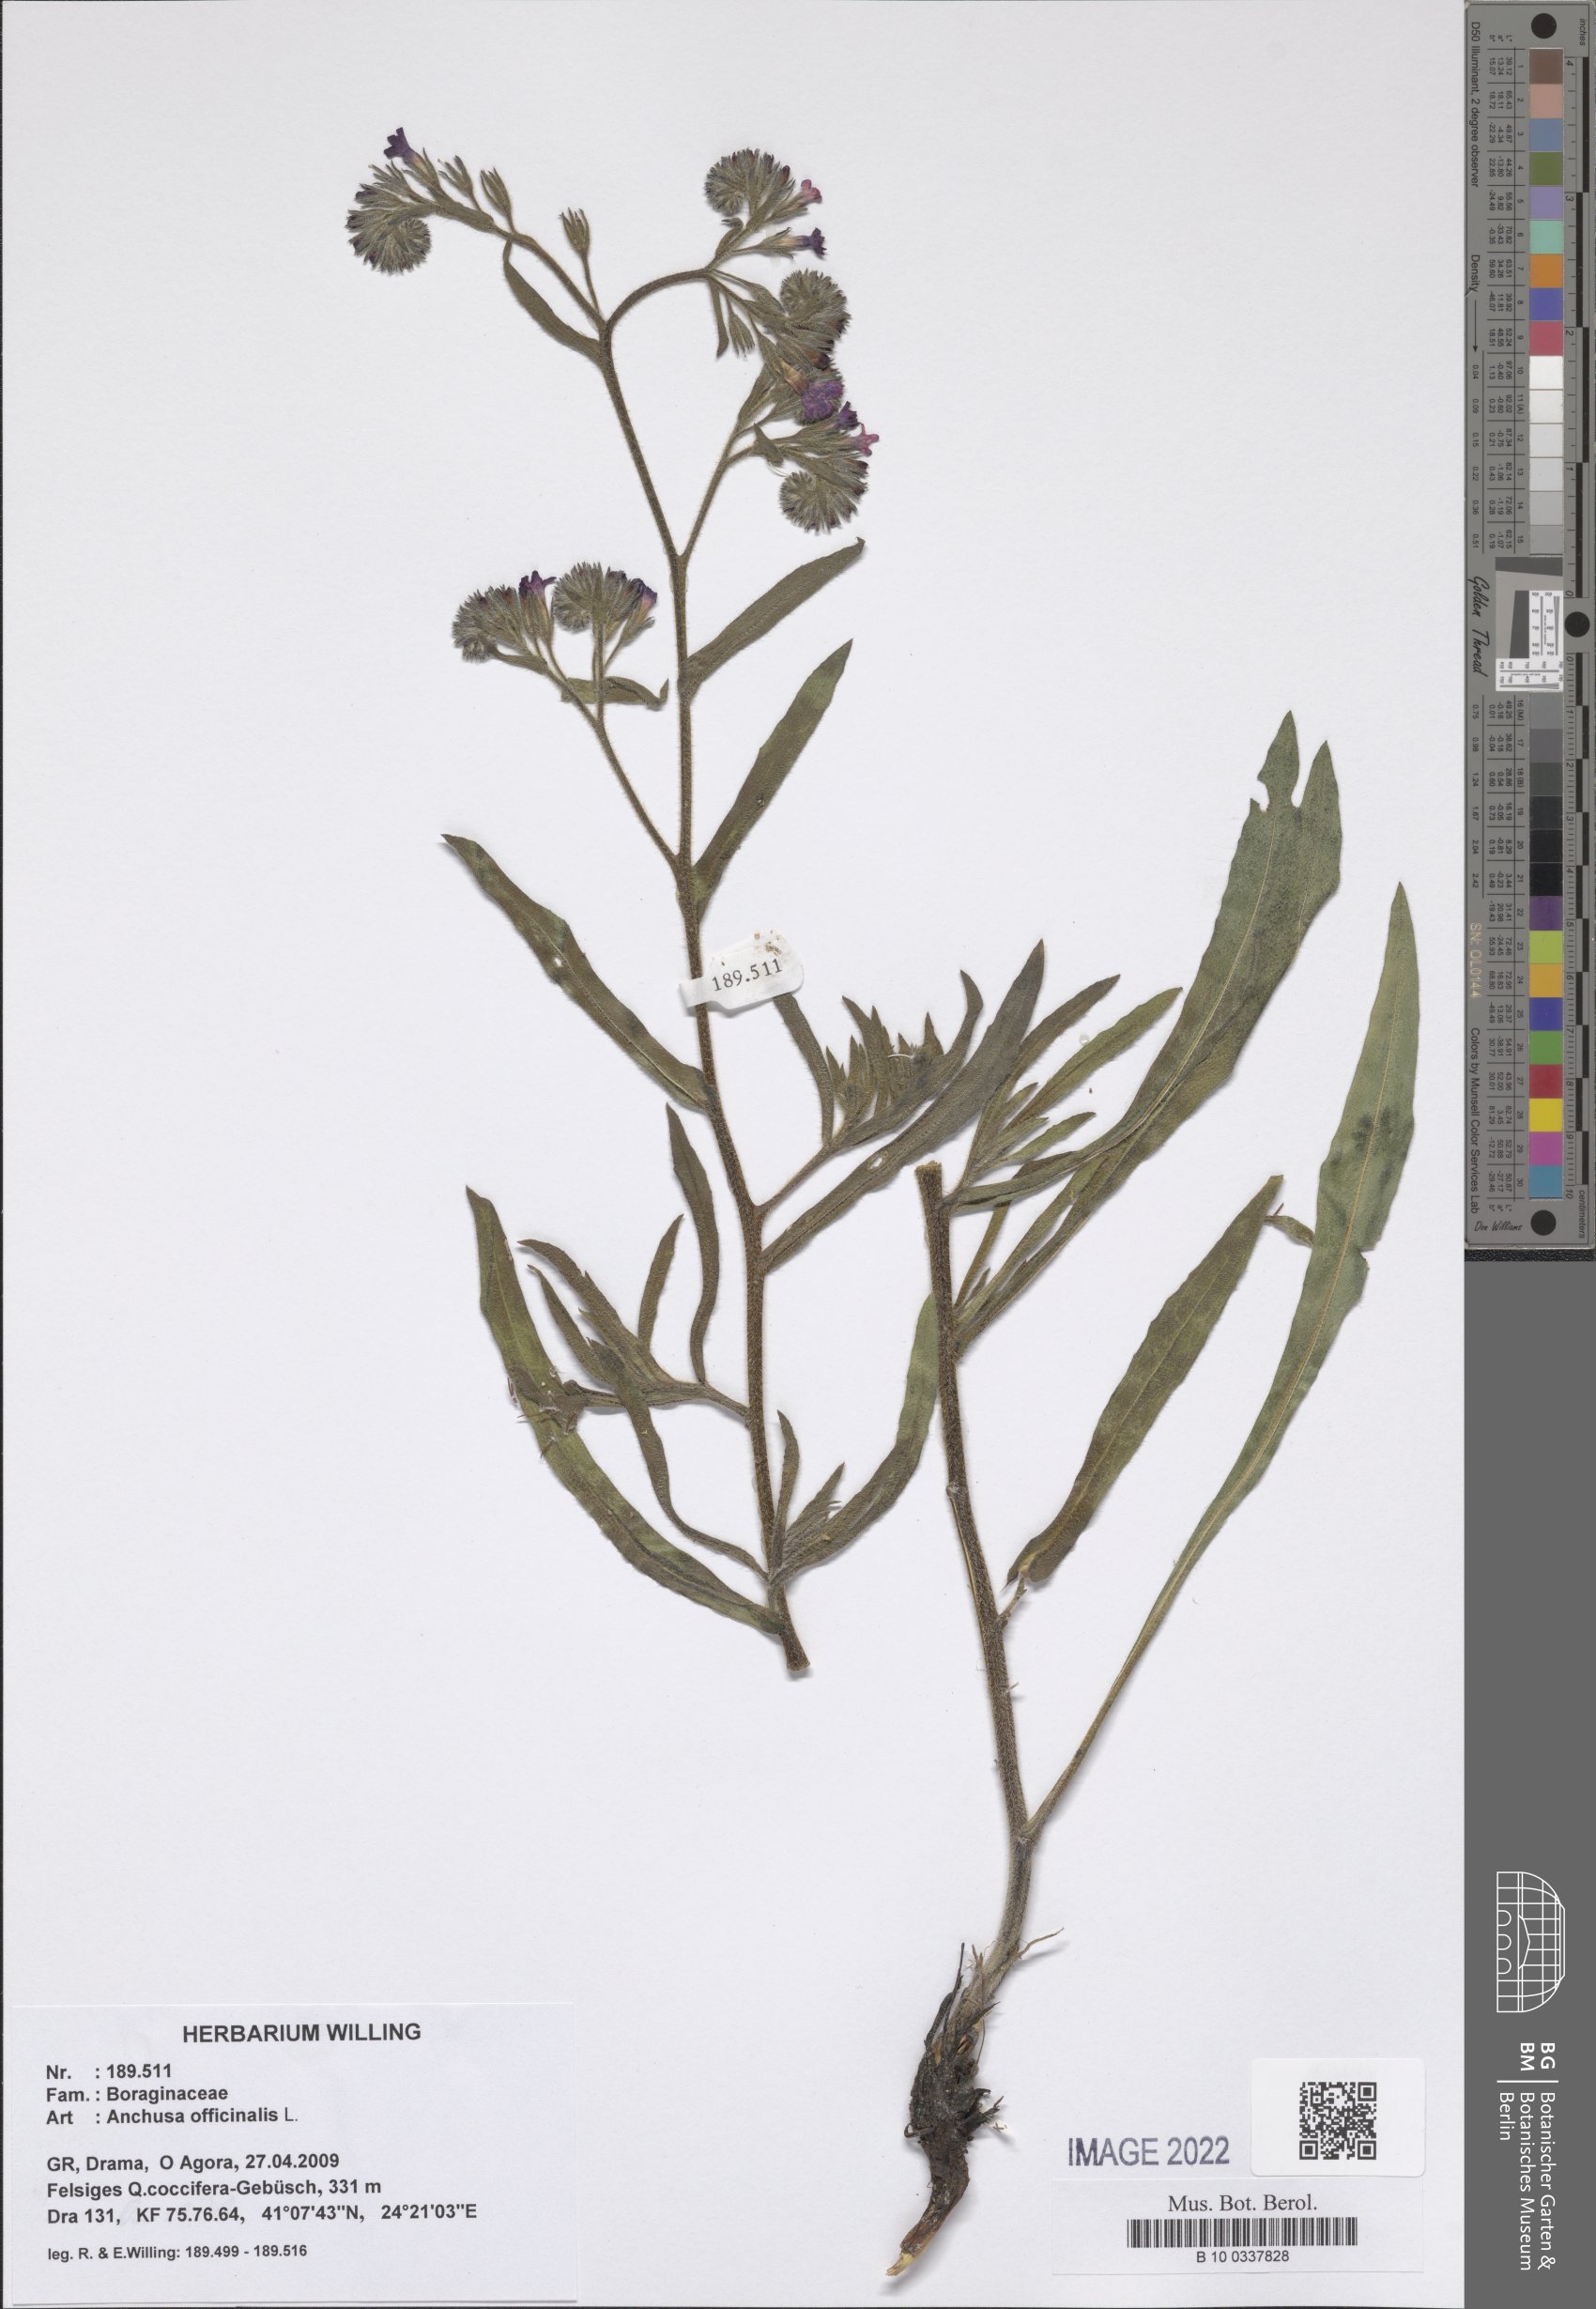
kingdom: Plantae
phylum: Tracheophyta
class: Magnoliopsida
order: Boraginales
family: Boraginaceae
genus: Anchusa
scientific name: Anchusa officinalis
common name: Alkanet
